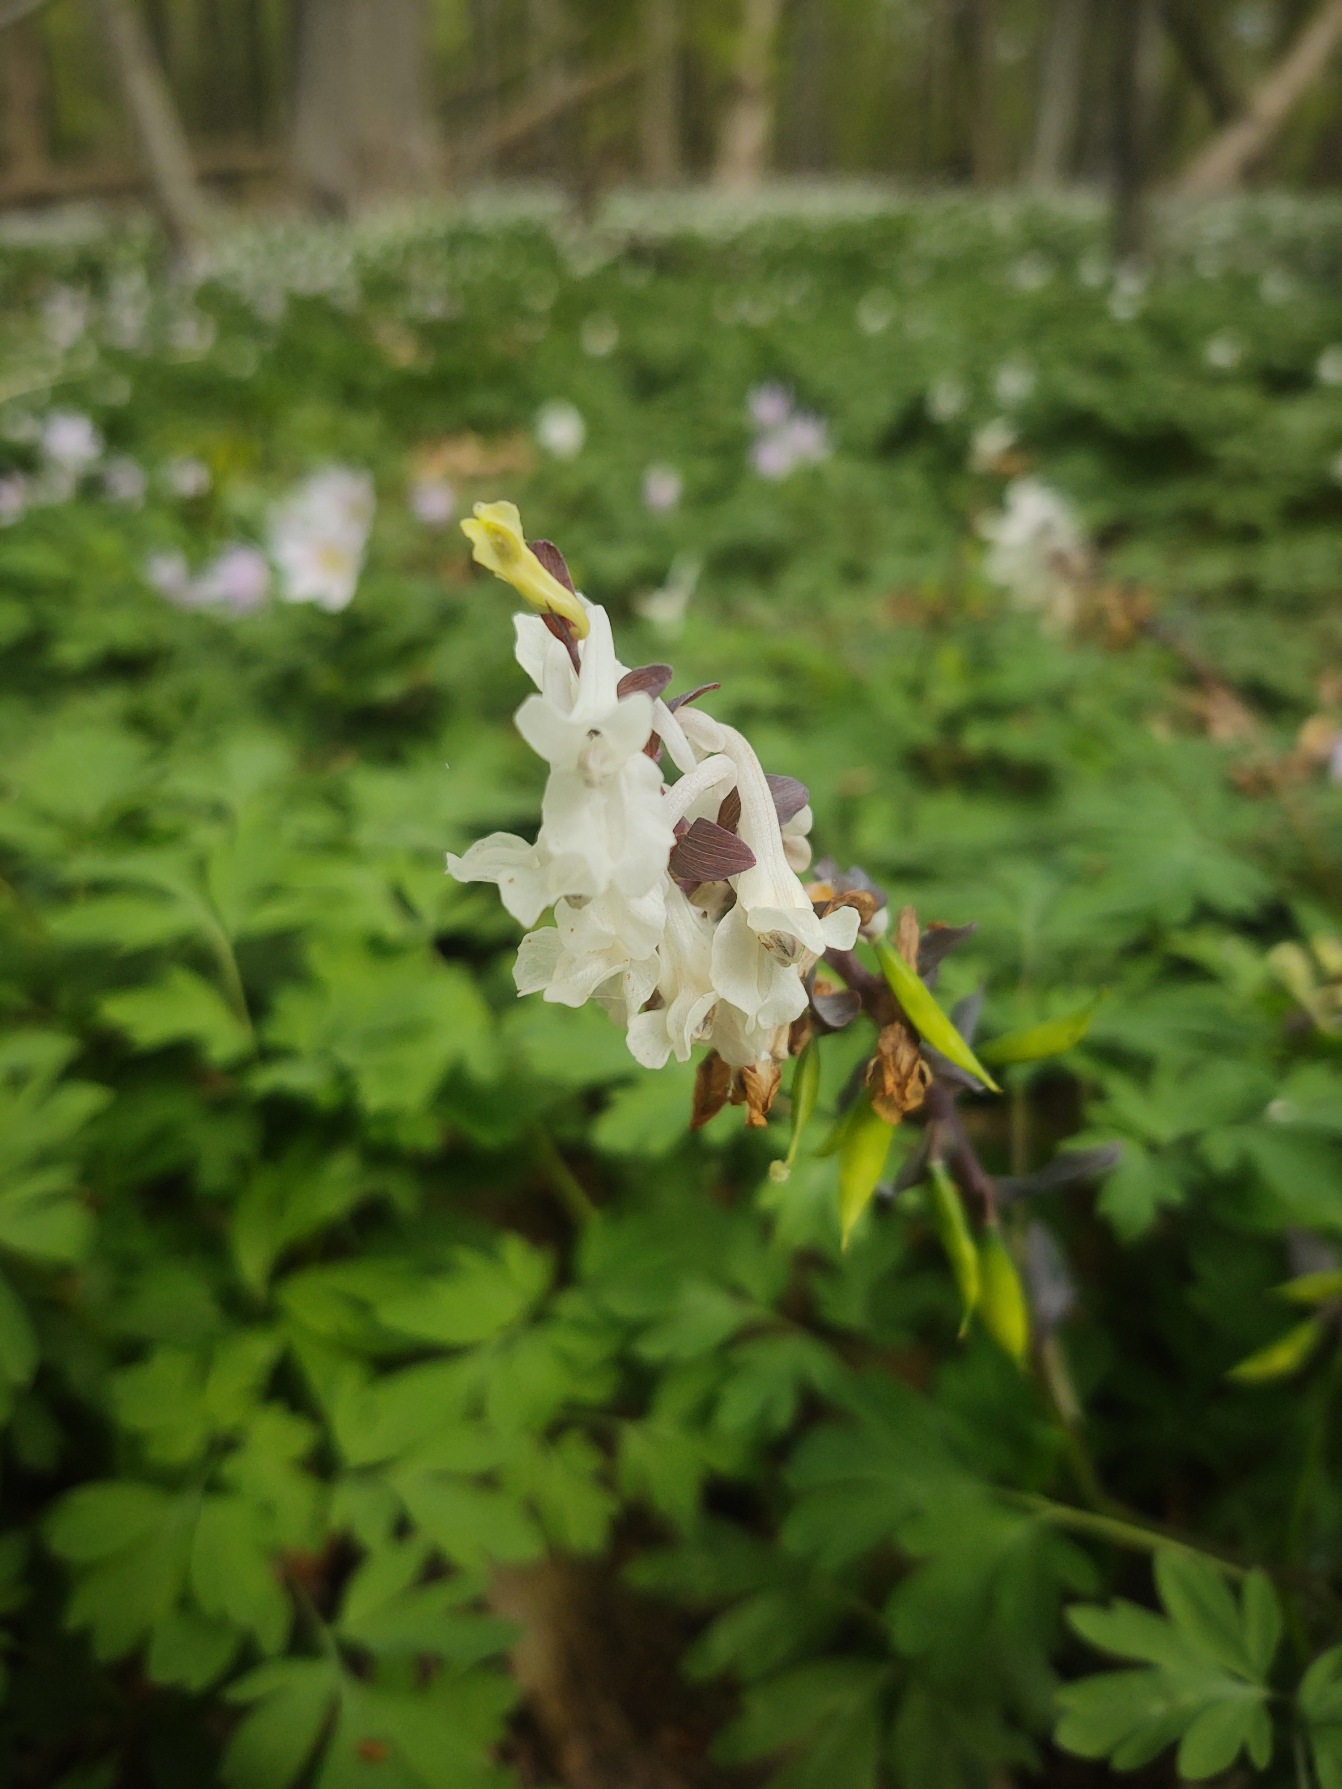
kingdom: Plantae
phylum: Tracheophyta
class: Magnoliopsida
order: Ranunculales
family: Papaveraceae
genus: Corydalis
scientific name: Corydalis cava
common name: Hulrodet lærkespore
